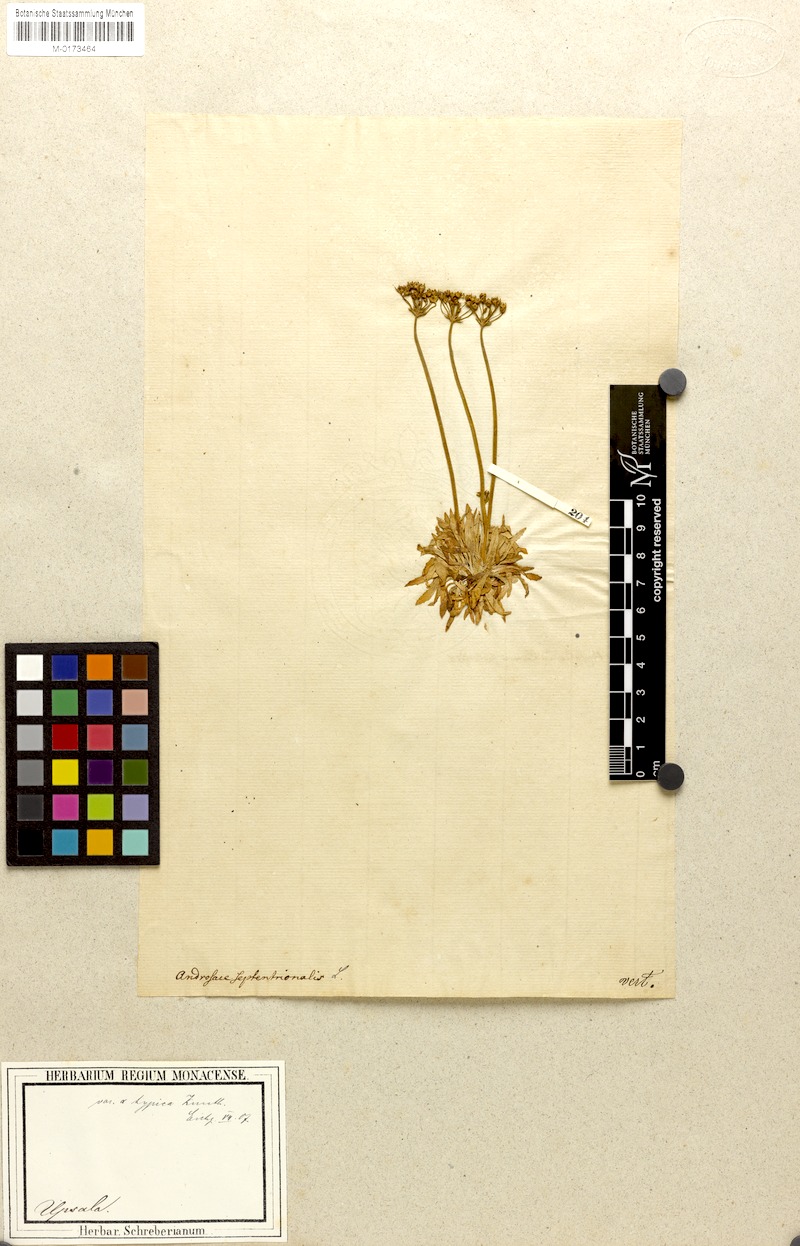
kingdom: Plantae
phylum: Tracheophyta
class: Magnoliopsida
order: Ericales
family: Primulaceae
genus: Androsace
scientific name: Androsace septentrionalis
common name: Hairy northern fairy-candelabra
